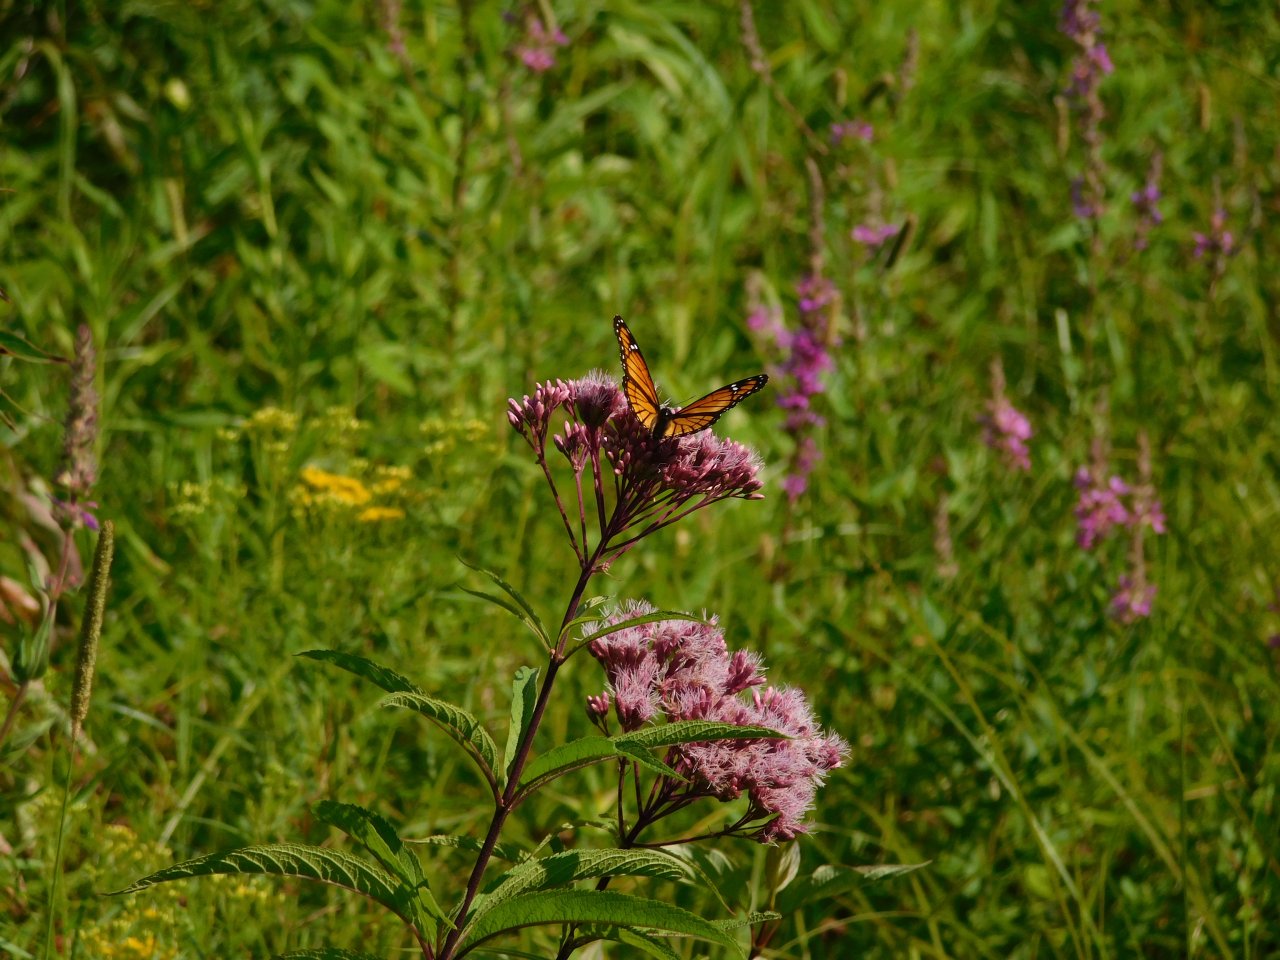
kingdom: Animalia
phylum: Arthropoda
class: Insecta
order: Lepidoptera
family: Nymphalidae
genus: Danaus
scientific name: Danaus plexippus
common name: Monarch
